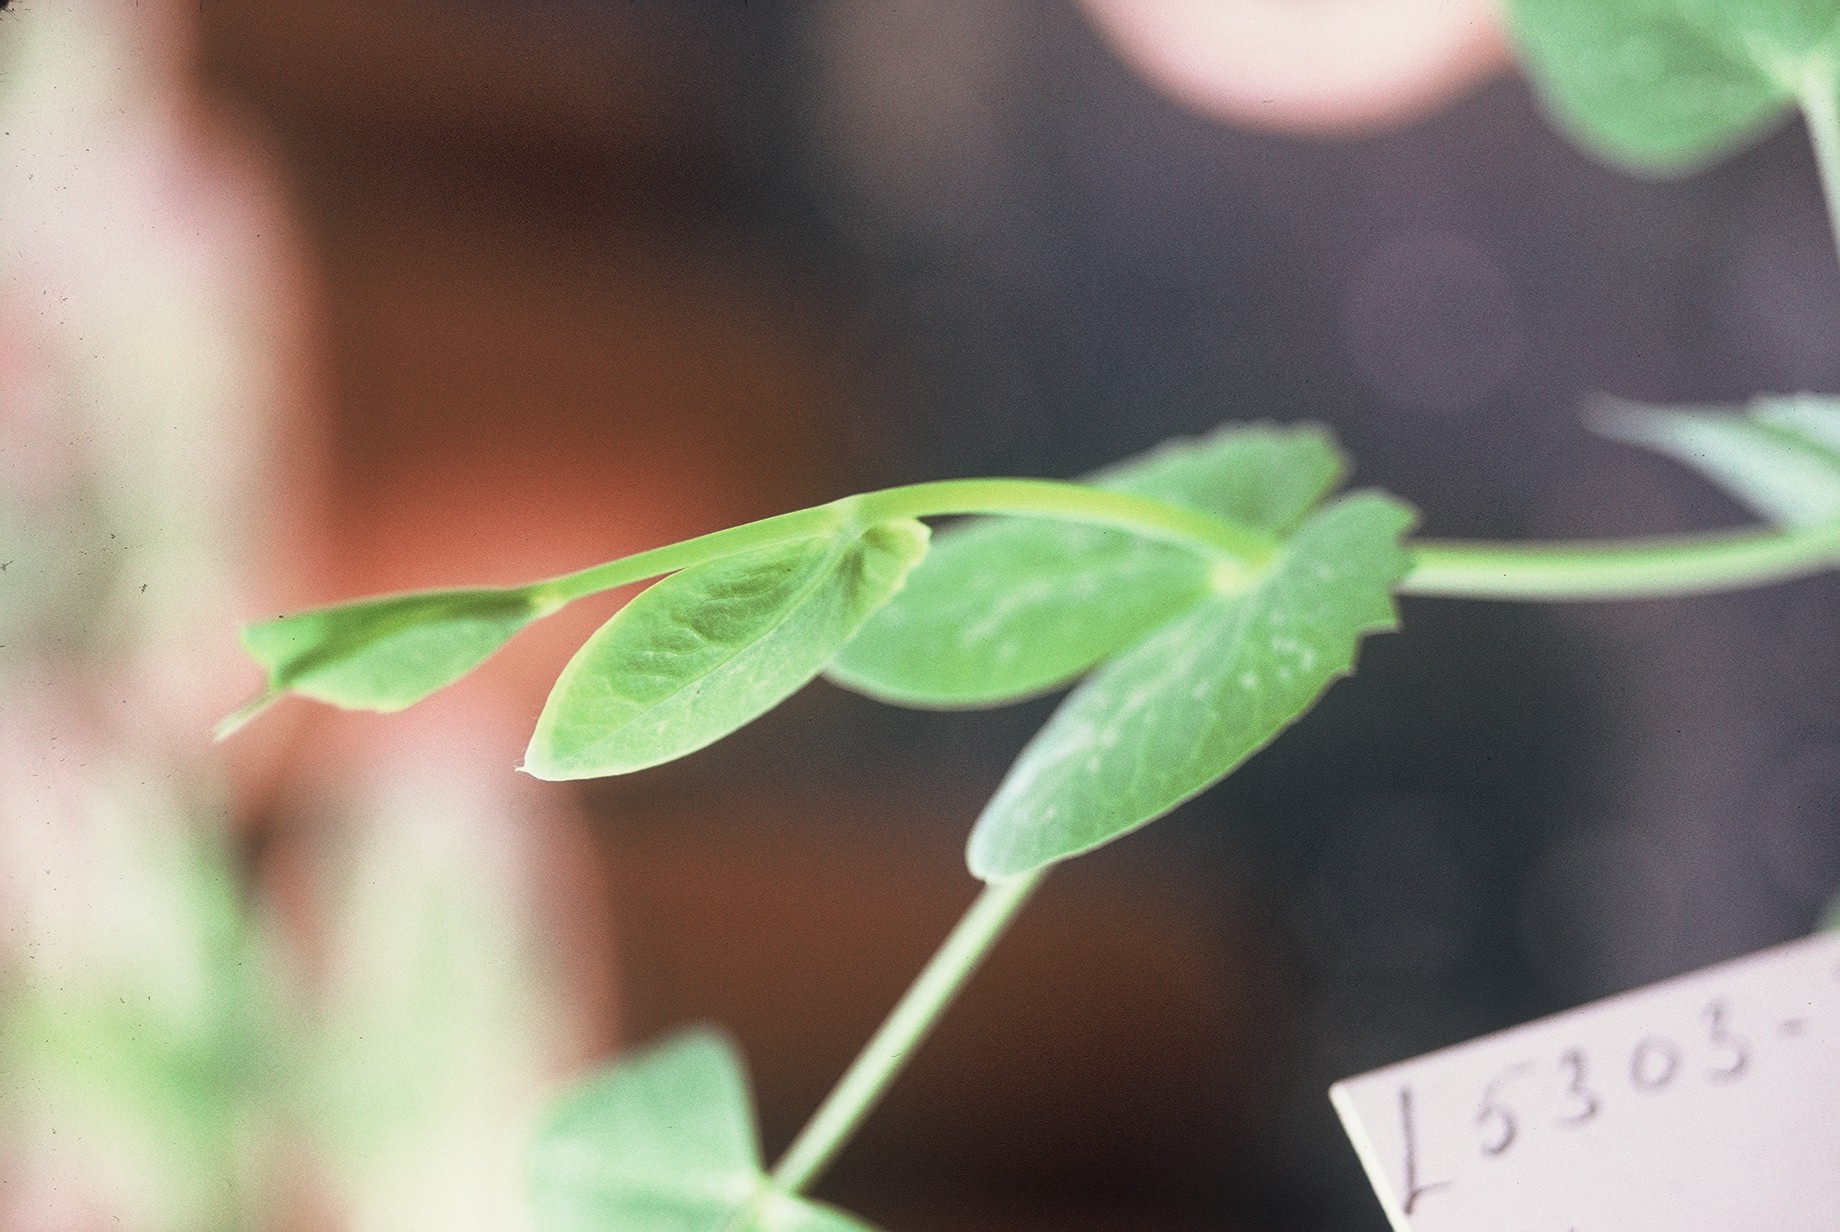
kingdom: Plantae
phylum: Tracheophyta
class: Magnoliopsida
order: Fabales
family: Fabaceae
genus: Lathyrus
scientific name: Lathyrus oleraceus
